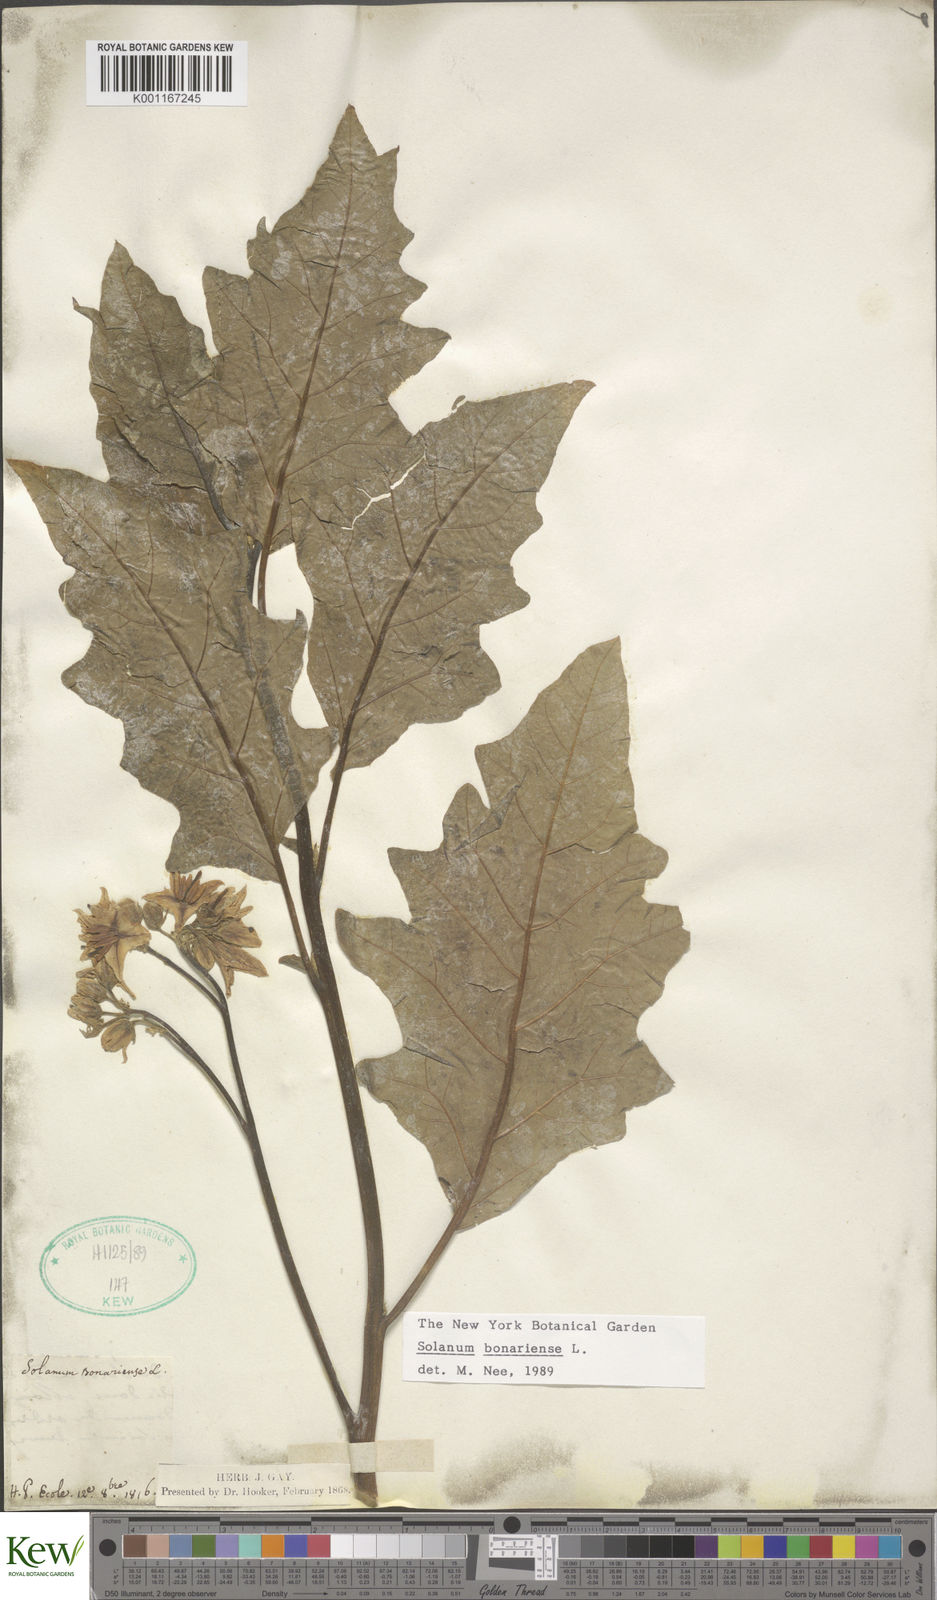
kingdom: Plantae
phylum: Tracheophyta
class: Magnoliopsida
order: Solanales
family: Solanaceae
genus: Solanum
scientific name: Solanum bonariense
